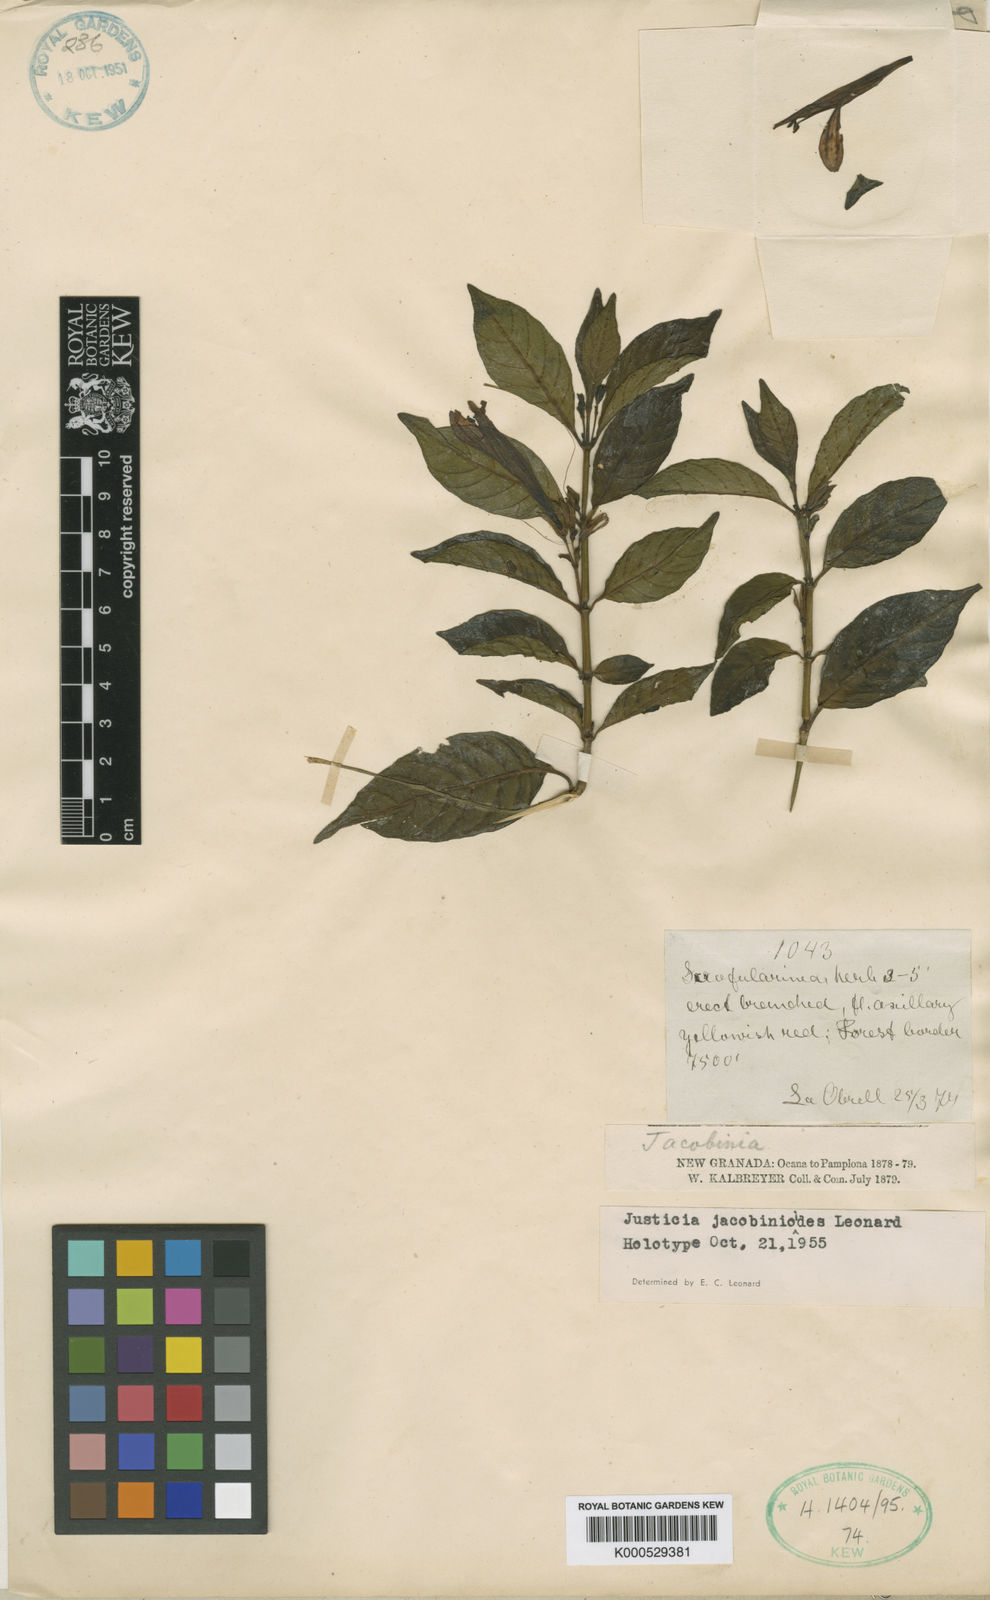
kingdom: Plantae
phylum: Tracheophyta
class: Magnoliopsida
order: Lamiales
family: Acanthaceae
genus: Justicia
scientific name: Justicia jacobinioides
